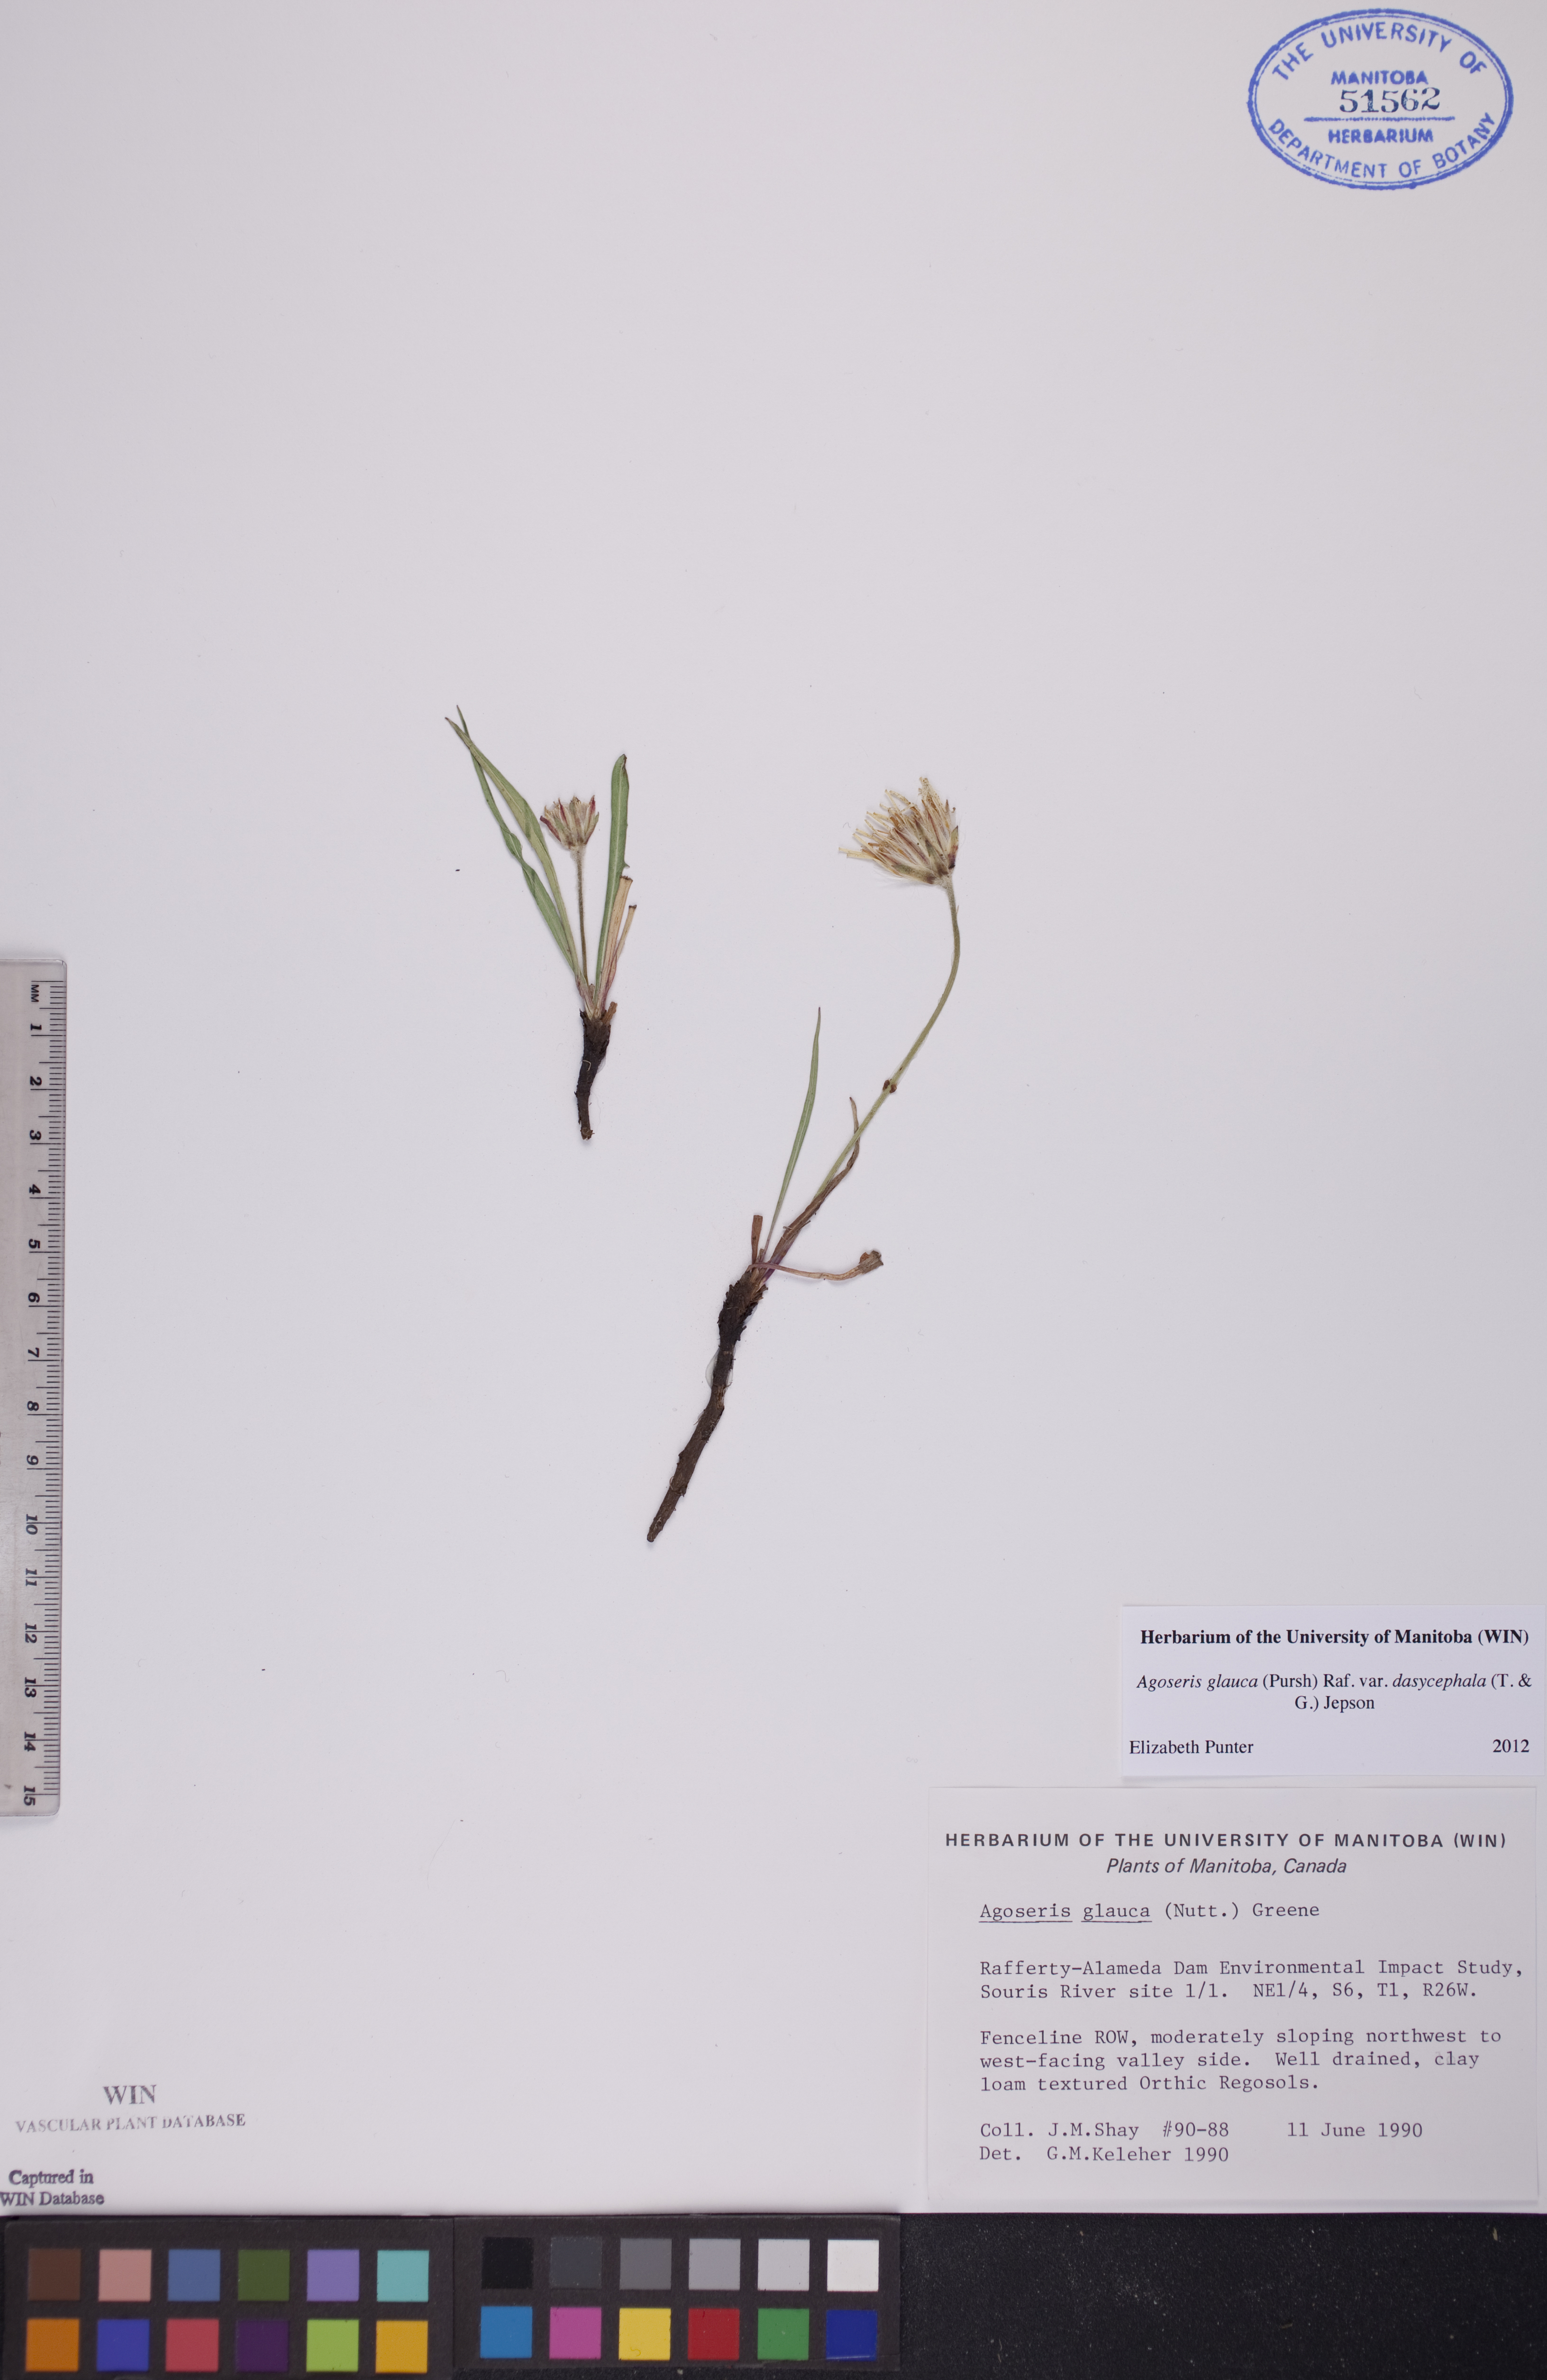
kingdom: Plantae
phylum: Tracheophyta
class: Magnoliopsida
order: Asterales
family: Asteraceae
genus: Agoseris
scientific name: Agoseris glauca
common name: Prairie agoseris
